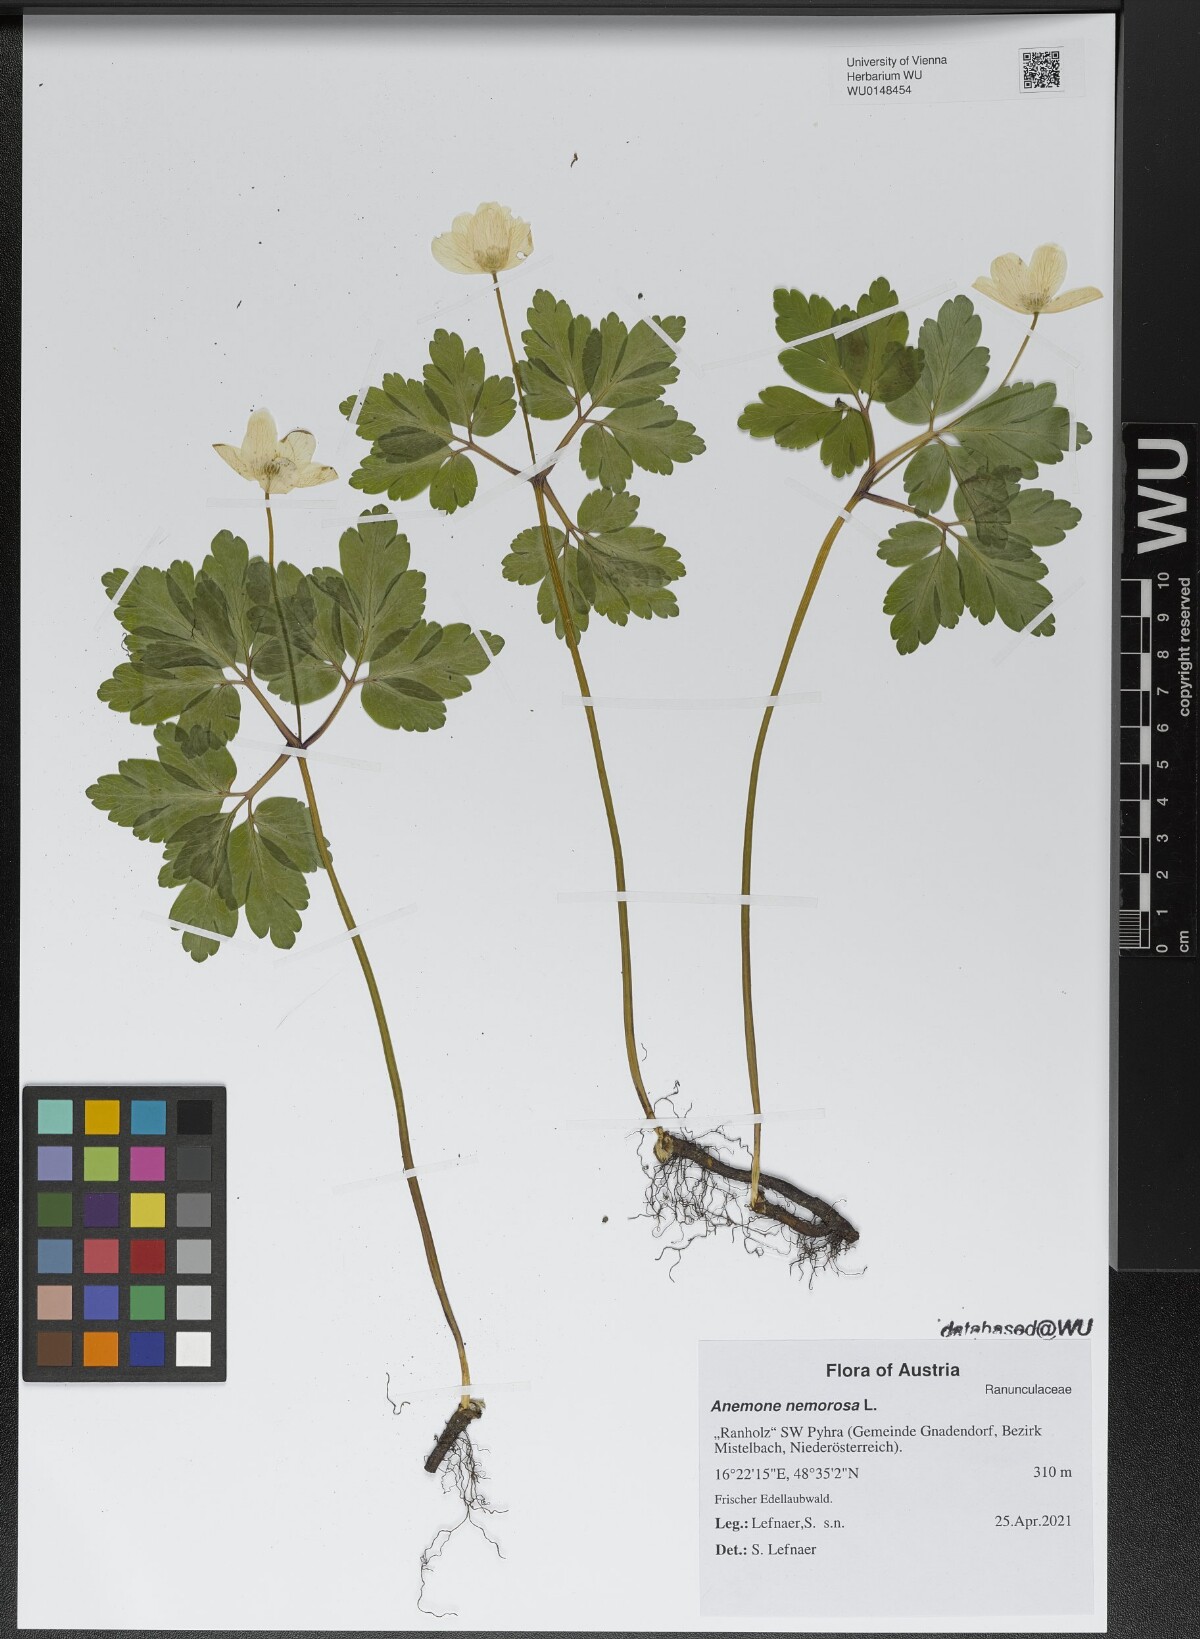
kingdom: Plantae
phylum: Tracheophyta
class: Magnoliopsida
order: Ranunculales
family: Ranunculaceae
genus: Anemone
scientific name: Anemone nemorosa
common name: Wood anemone
